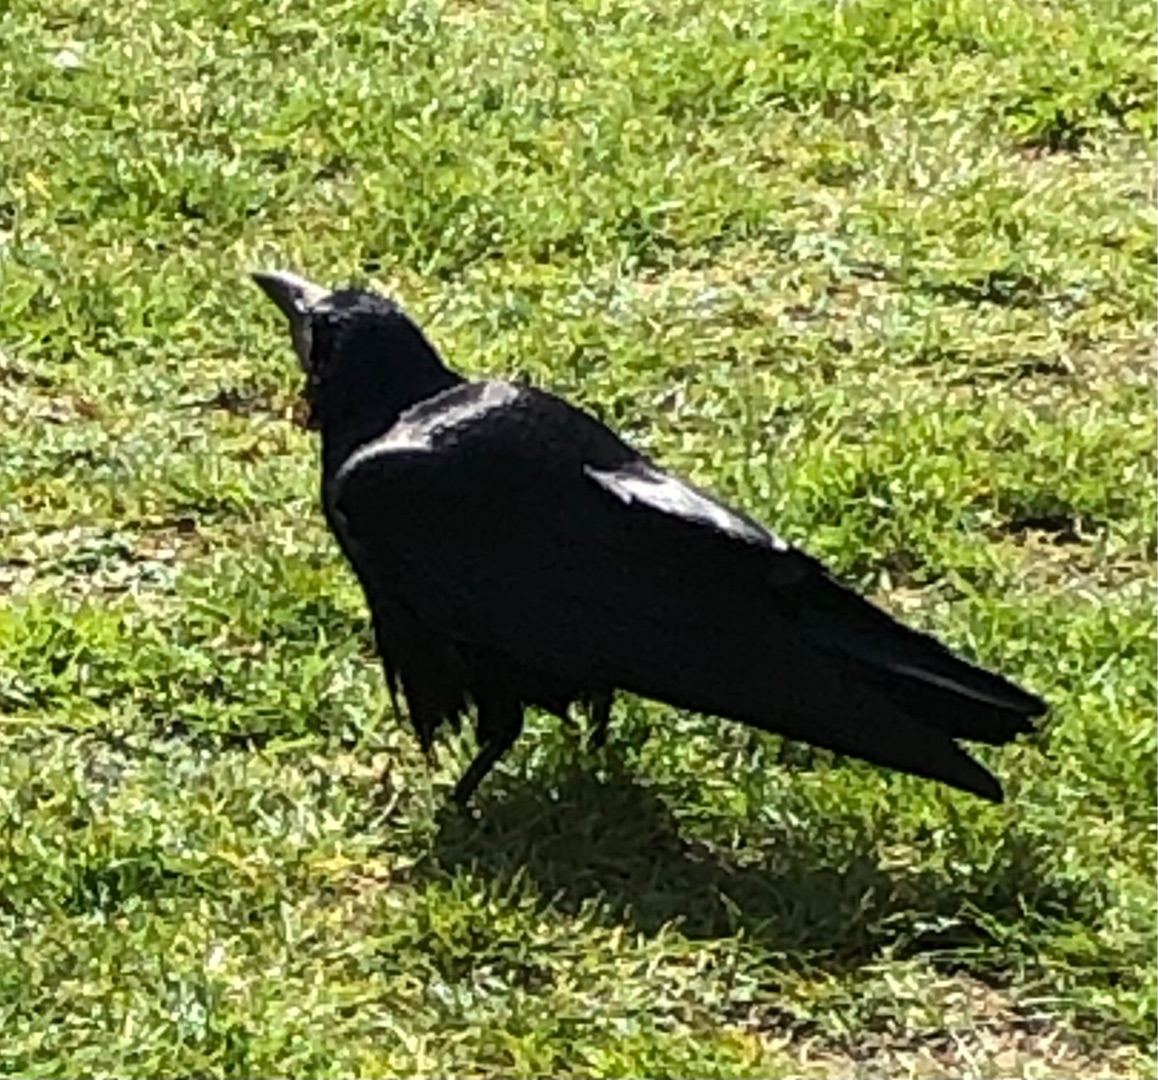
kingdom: Animalia
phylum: Chordata
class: Aves
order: Passeriformes
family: Corvidae
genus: Corvus
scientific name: Corvus frugilegus
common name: Råge
